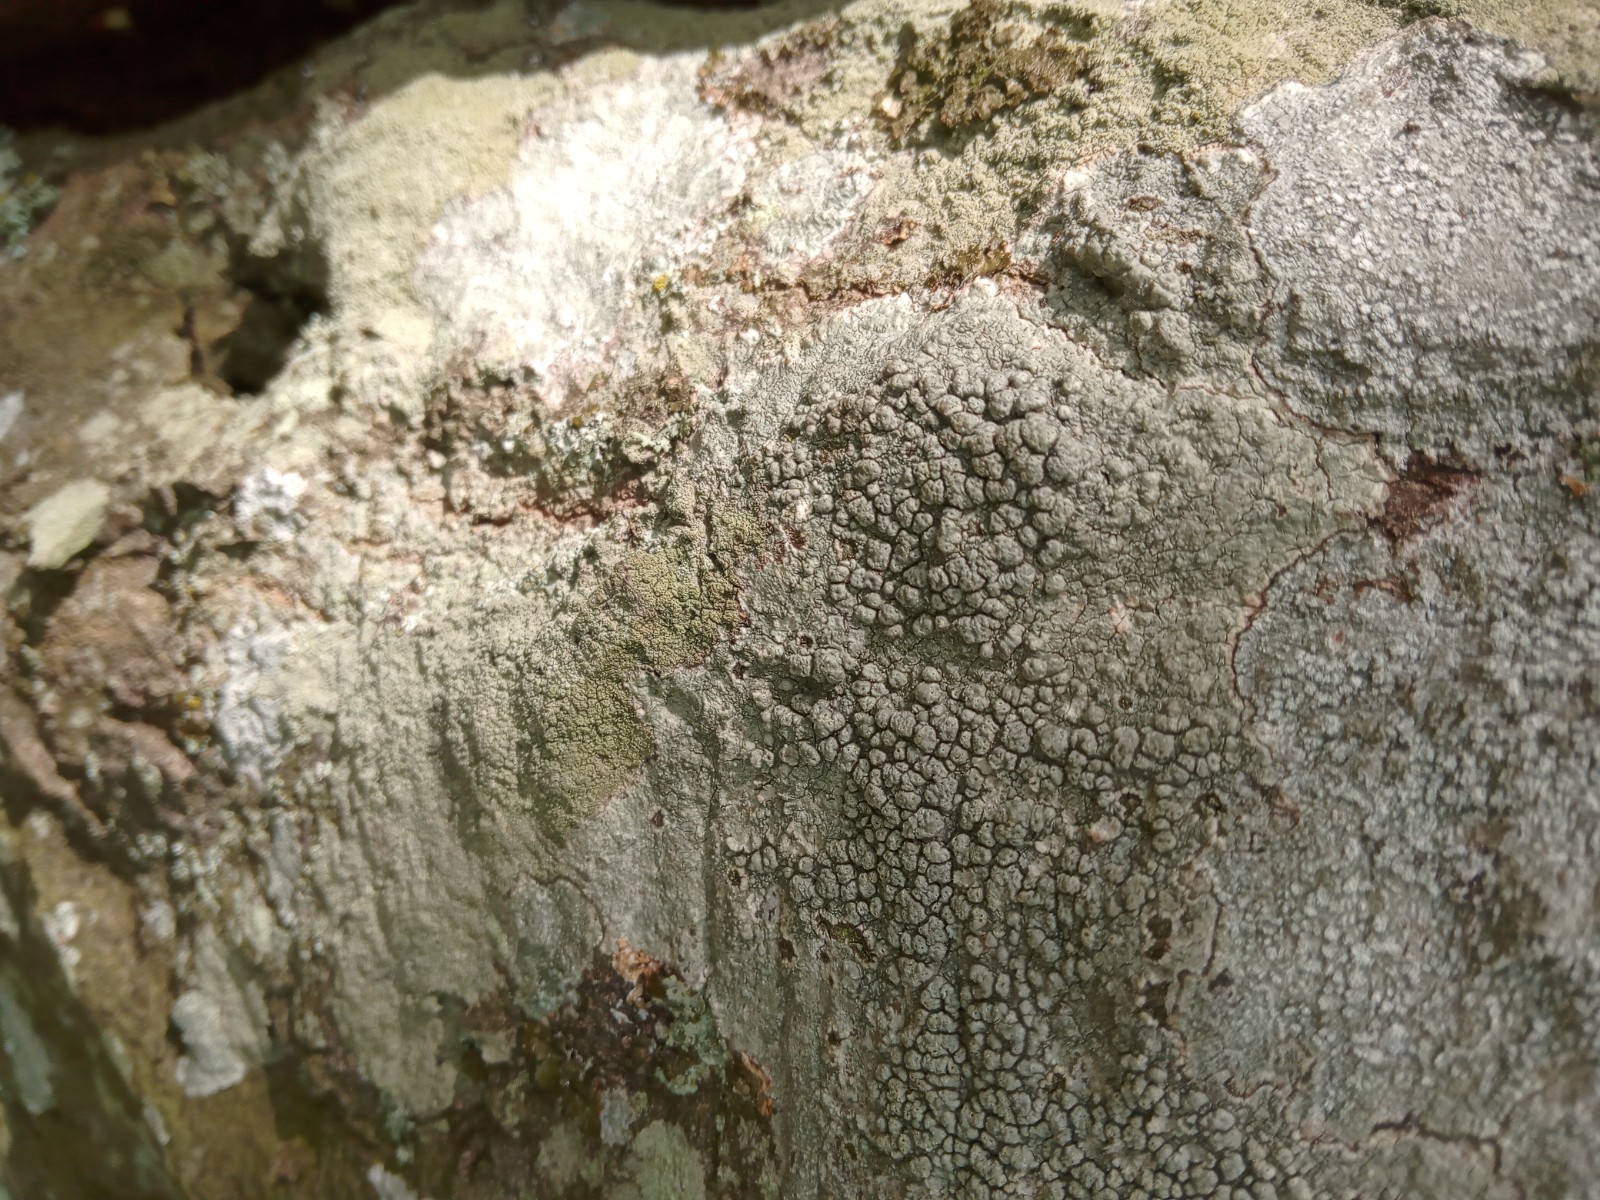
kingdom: Fungi
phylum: Ascomycota
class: Lecanoromycetes
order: Pertusariales
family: Pertusariaceae
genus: Pertusaria
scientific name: Pertusaria pertusa
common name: almindelig prikvortelav
